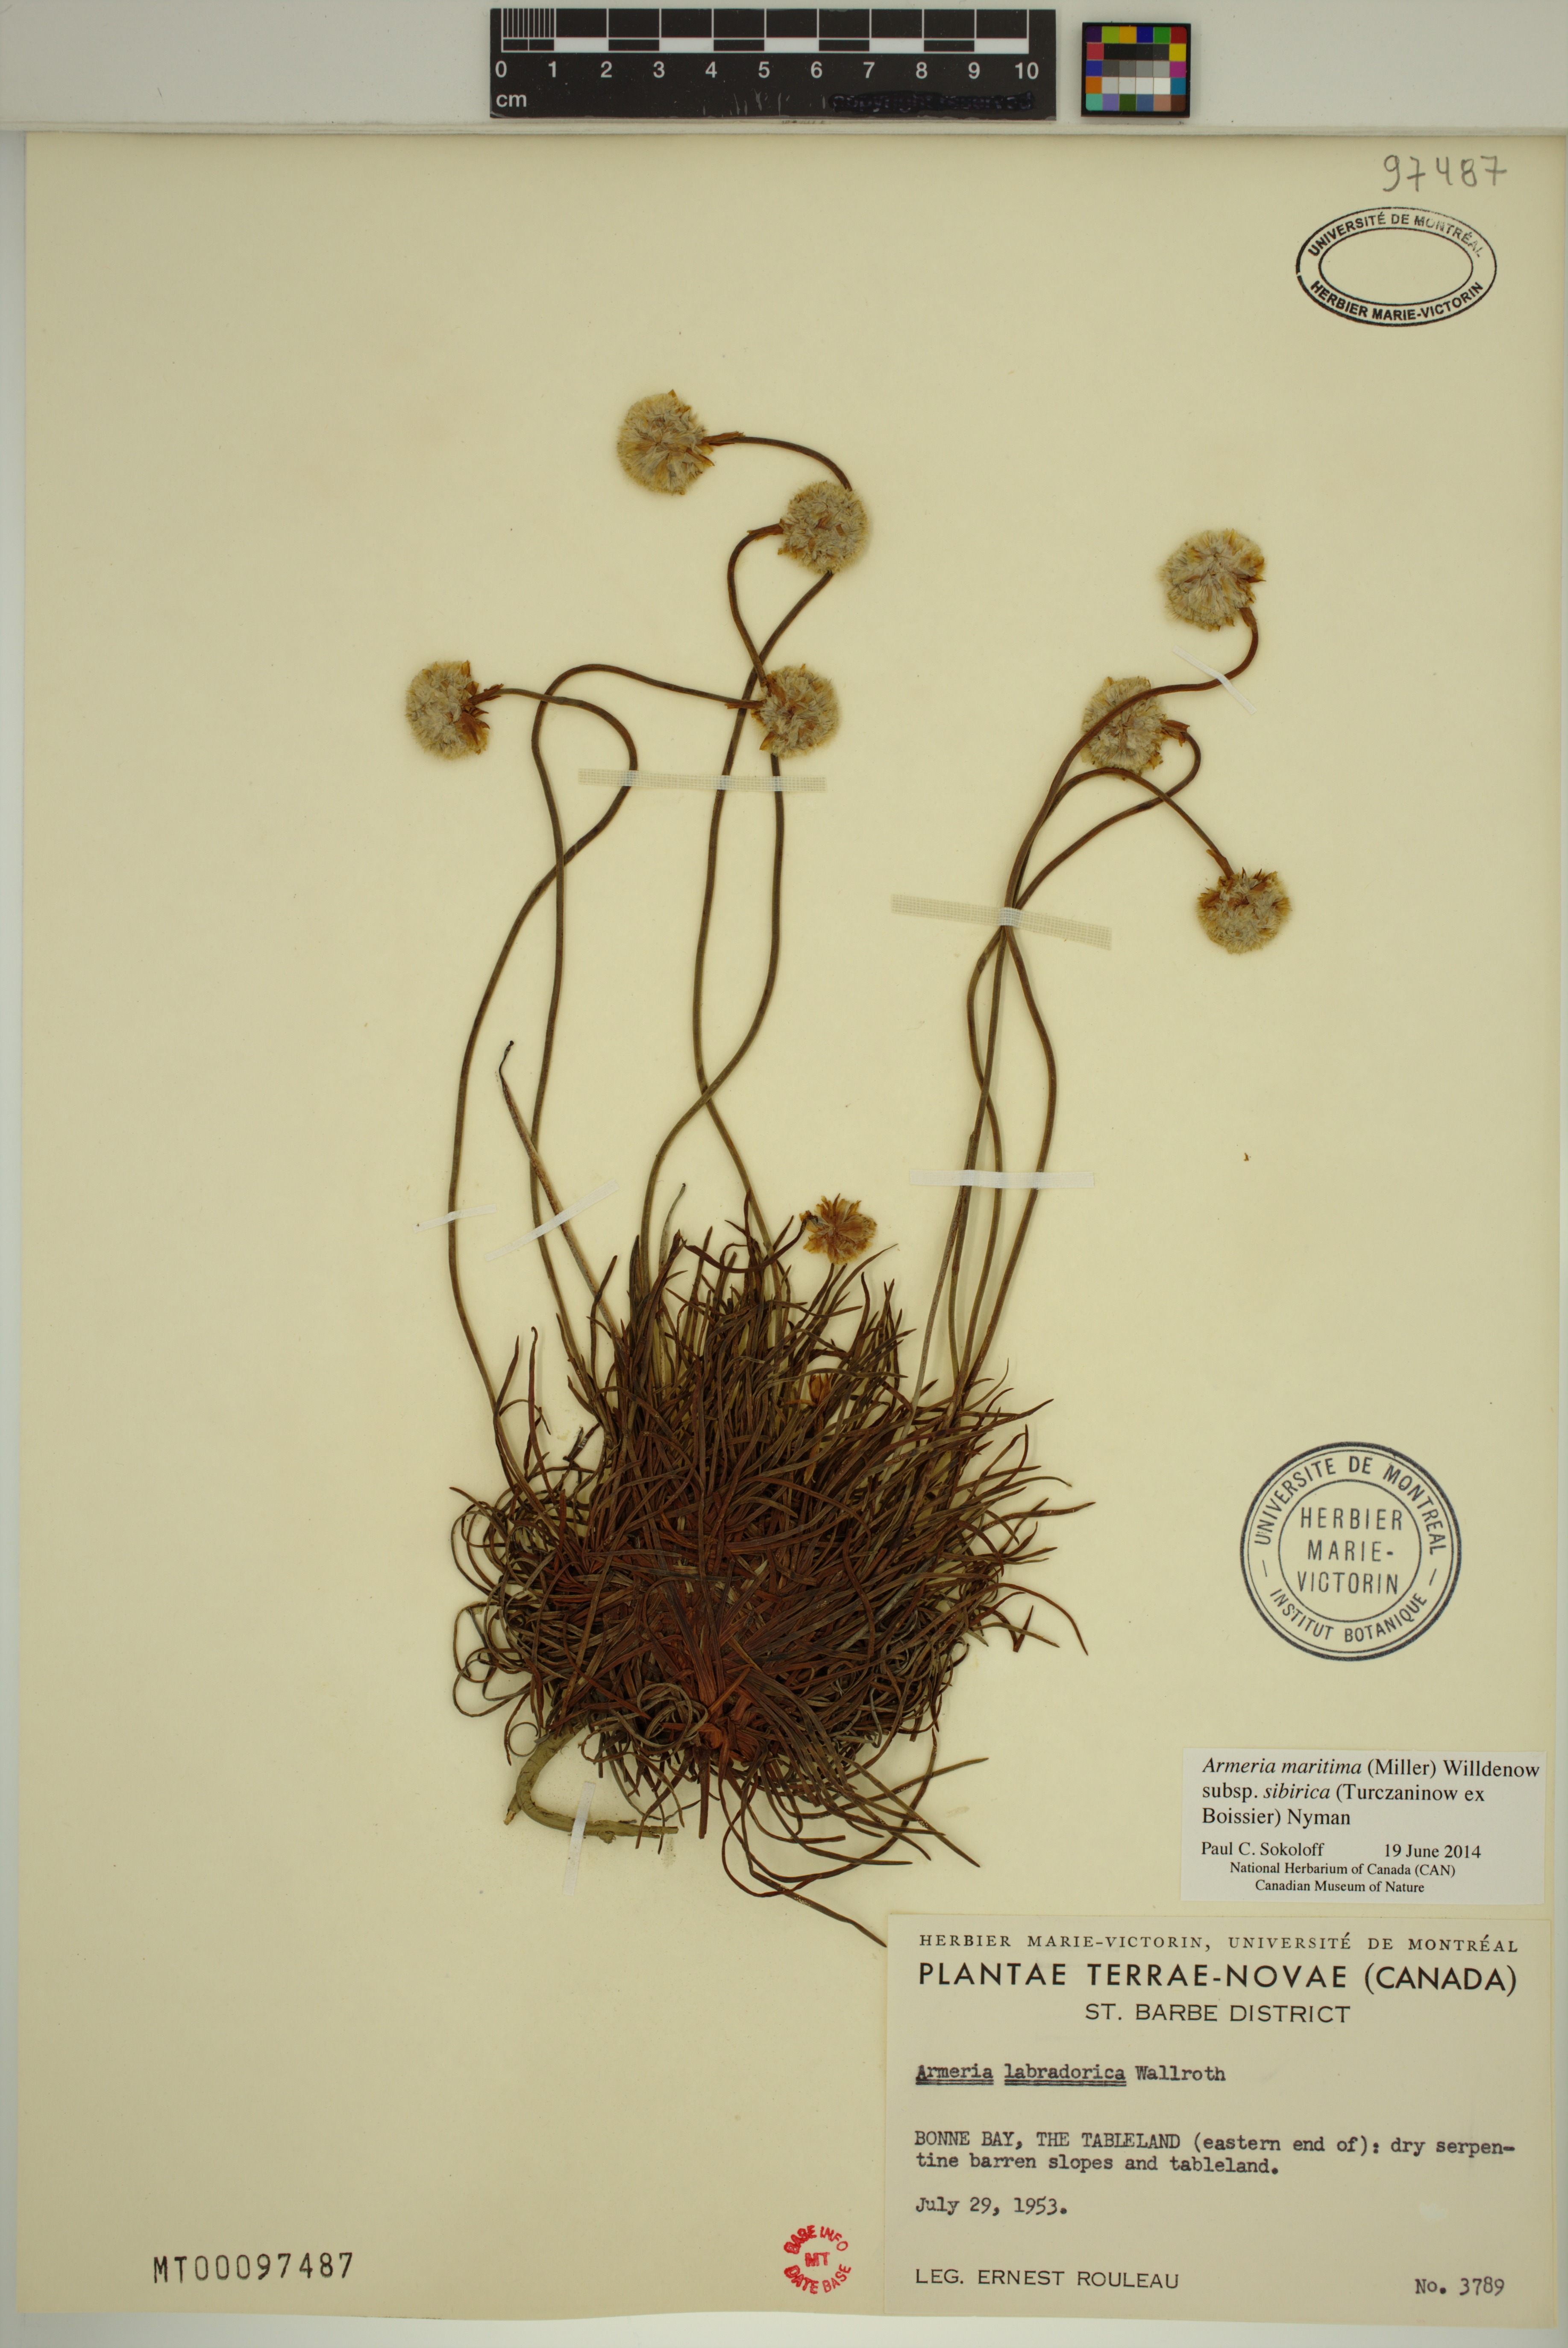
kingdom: Plantae
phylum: Tracheophyta
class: Magnoliopsida
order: Caryophyllales
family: Plumbaginaceae
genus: Armeria
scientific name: Armeria maritima
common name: Thrift
